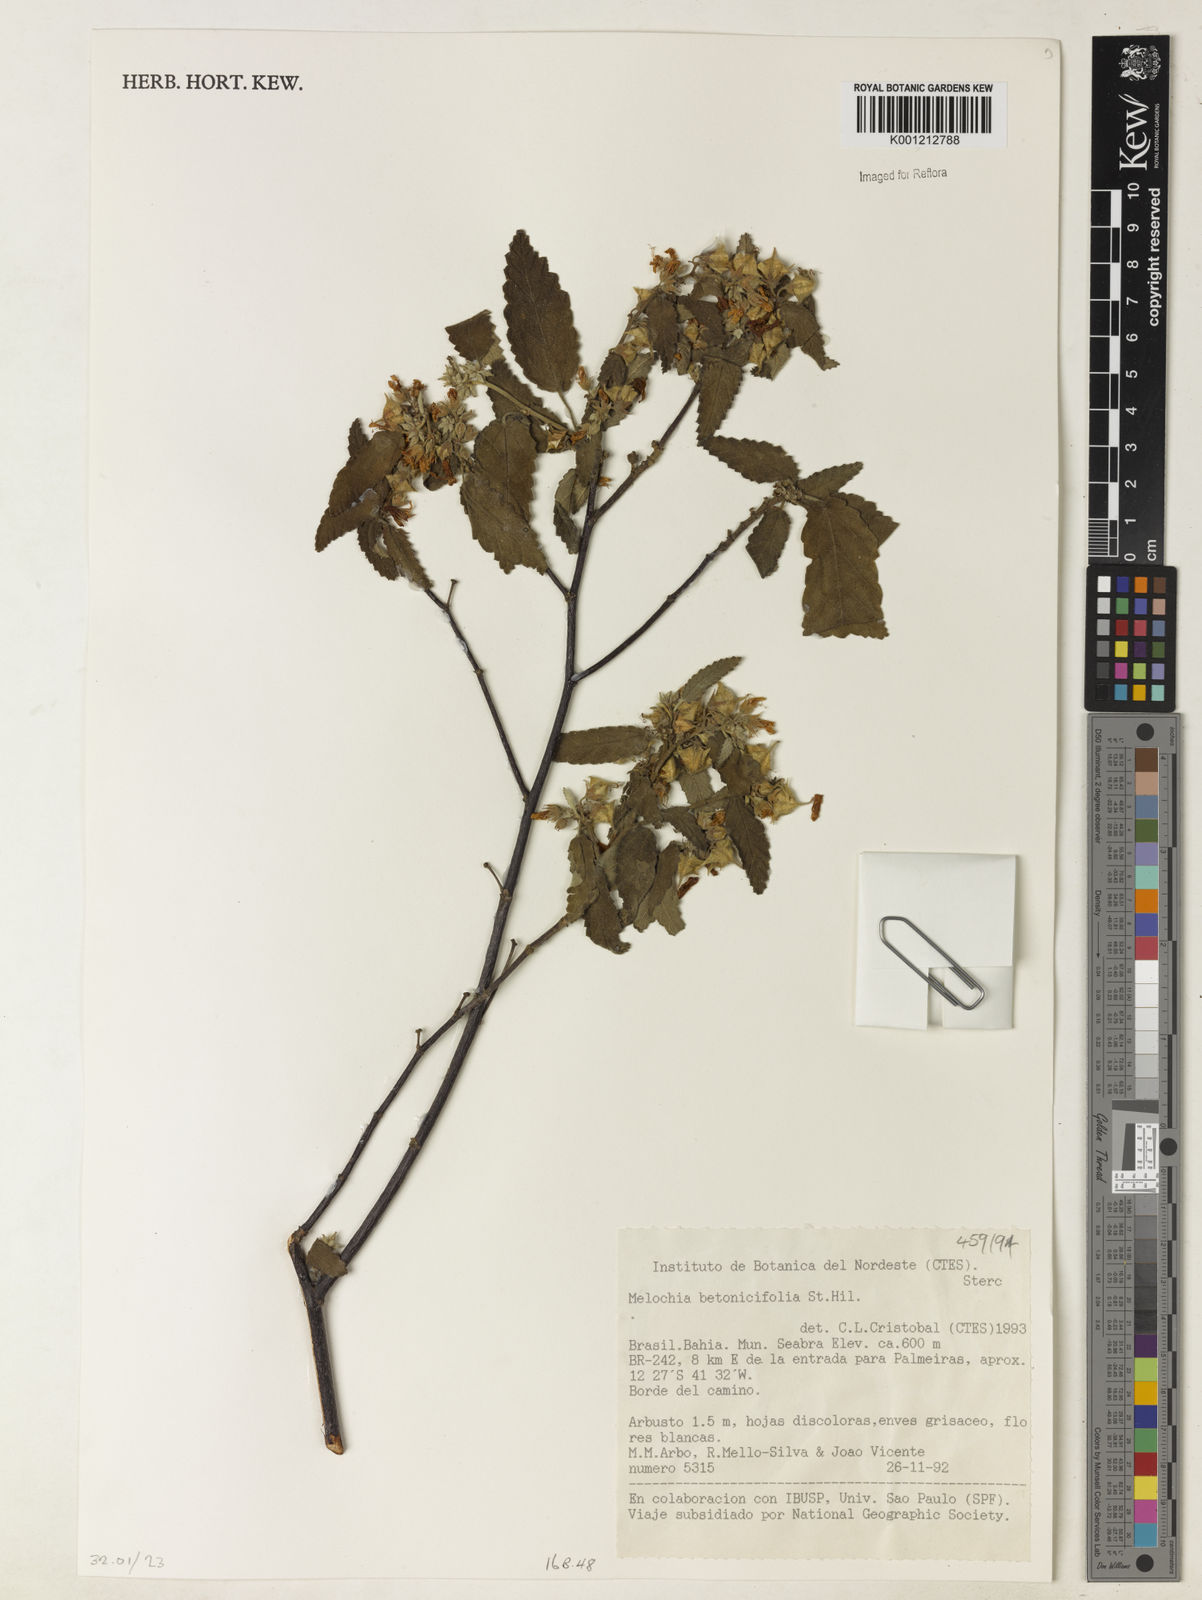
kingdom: Plantae
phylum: Tracheophyta
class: Magnoliopsida
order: Malvales
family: Malvaceae
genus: Melochia
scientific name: Melochia betonicifolia
